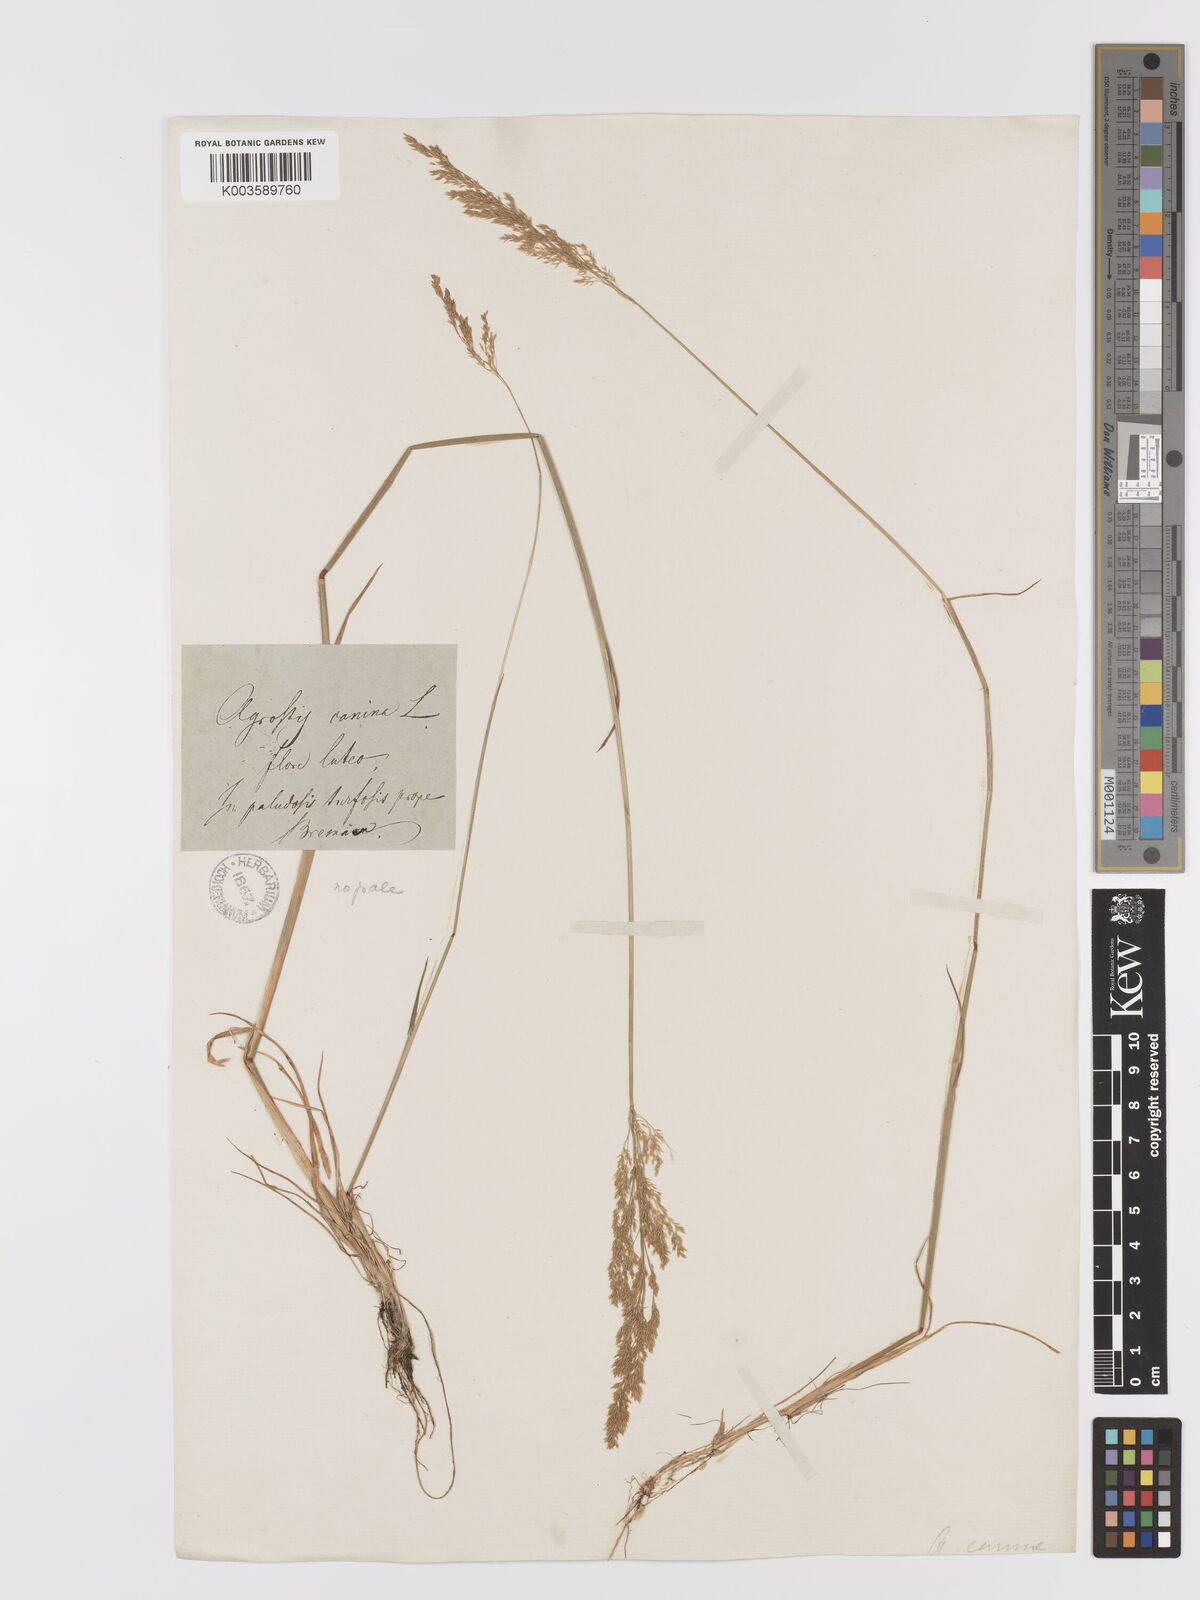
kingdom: Plantae
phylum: Tracheophyta
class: Liliopsida
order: Poales
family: Poaceae
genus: Agrostis
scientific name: Agrostis
